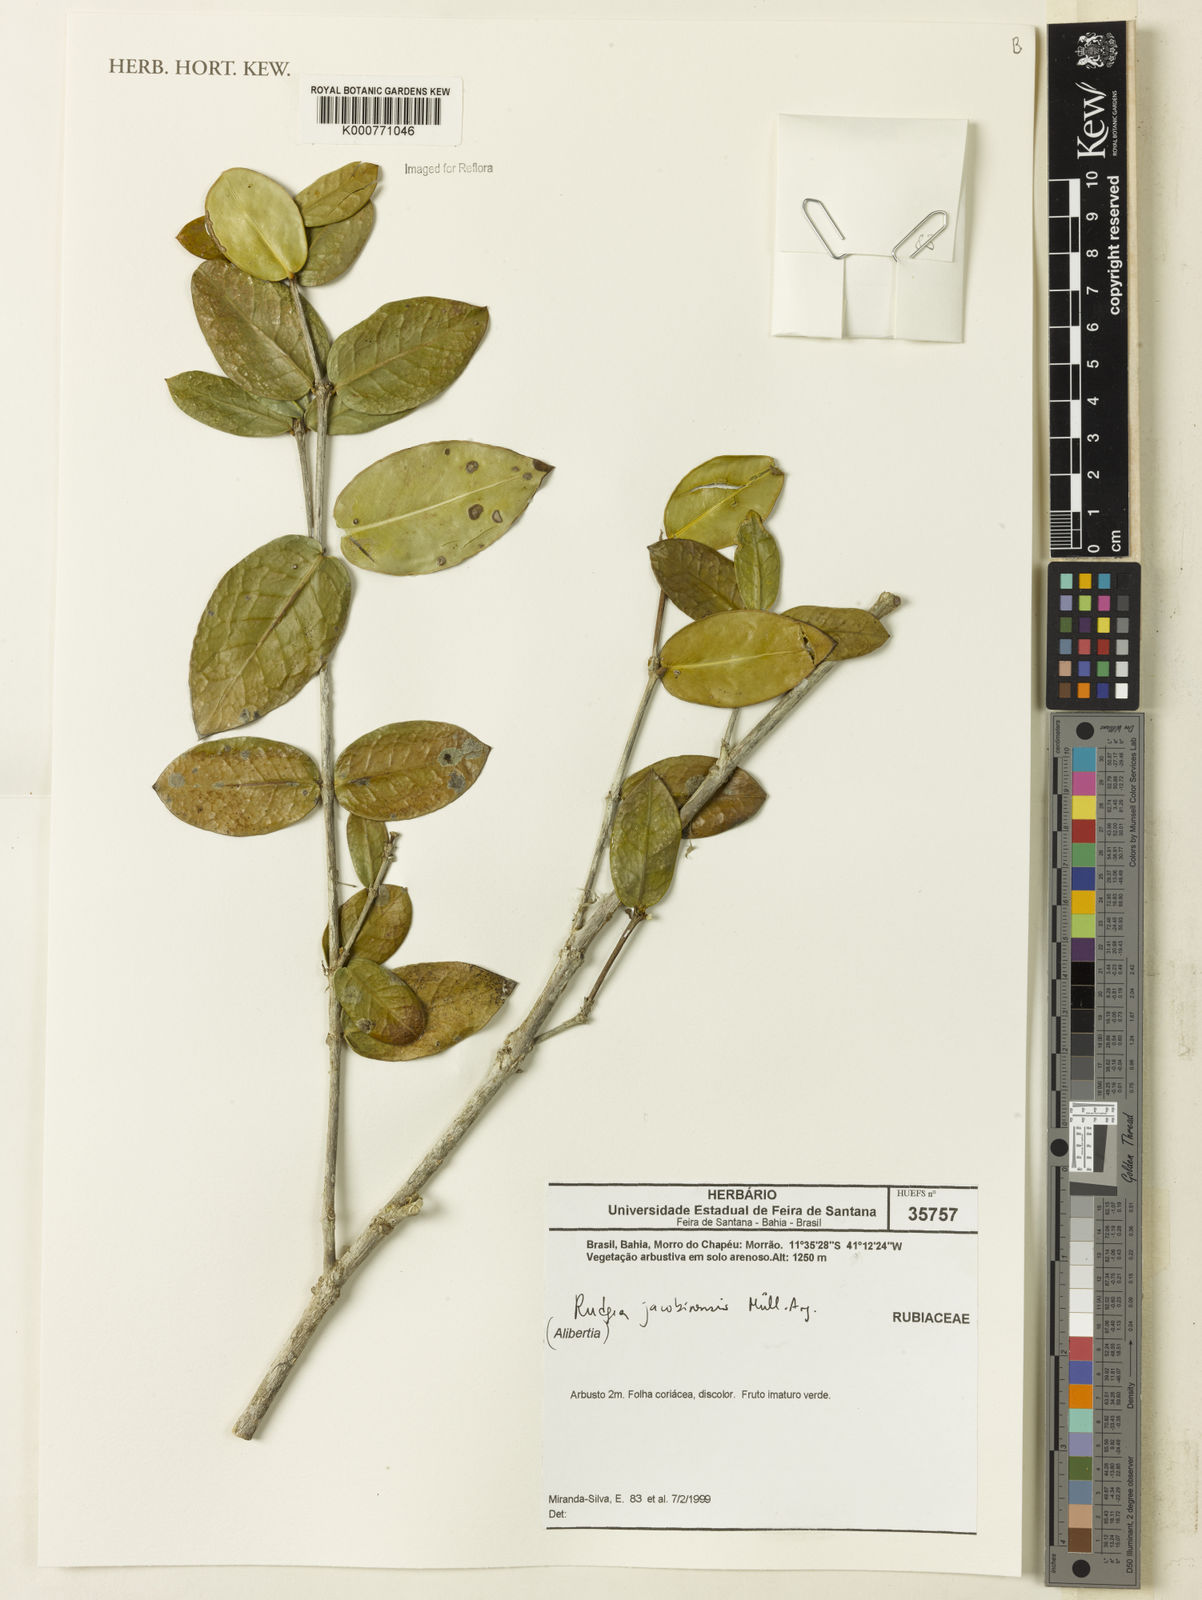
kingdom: Plantae
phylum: Tracheophyta
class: Magnoliopsida
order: Gentianales
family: Rubiaceae
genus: Rudgea
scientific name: Rudgea
